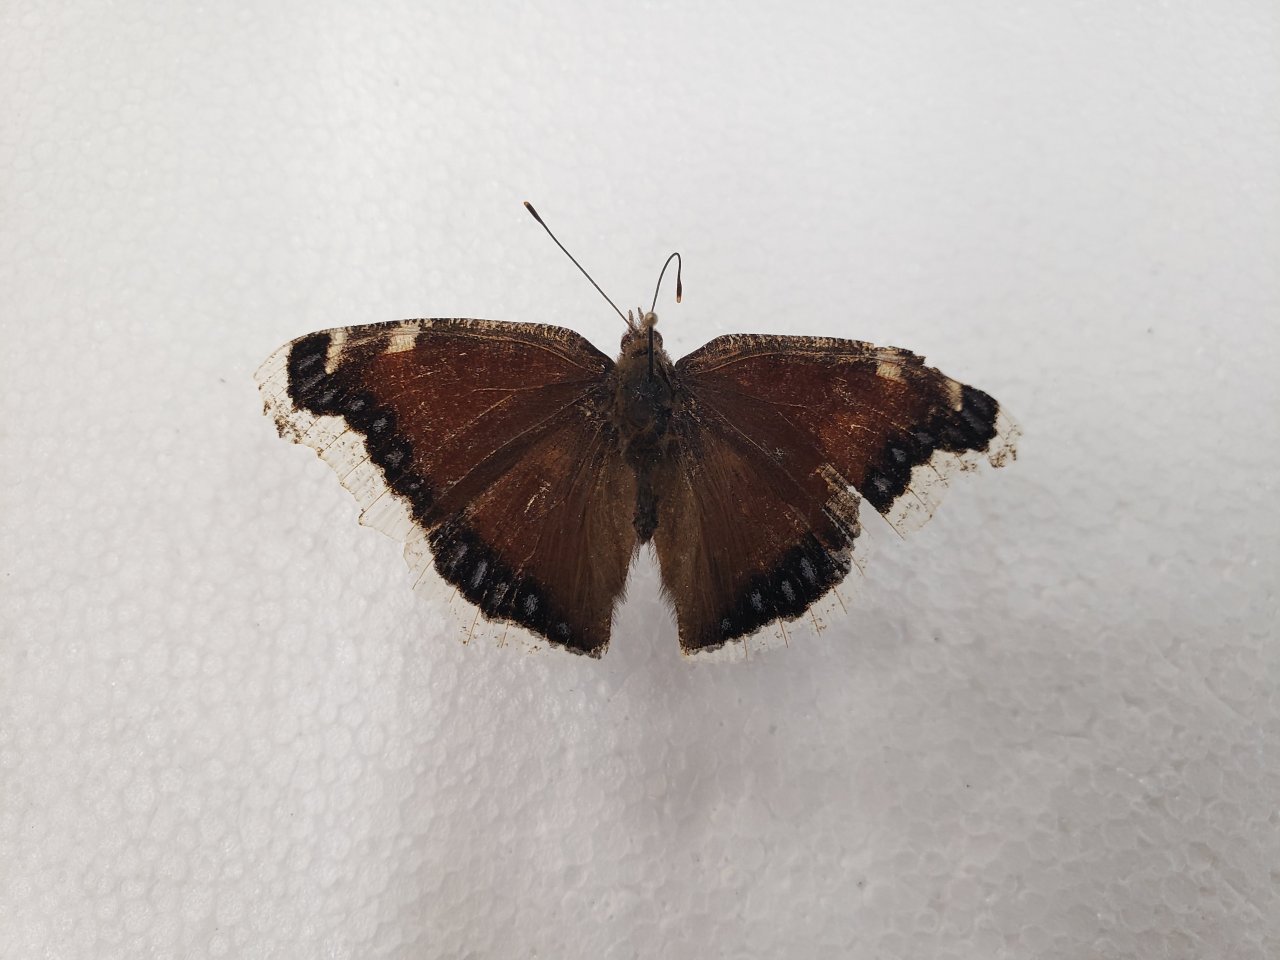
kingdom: Animalia
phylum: Arthropoda
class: Insecta
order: Lepidoptera
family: Nymphalidae
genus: Nymphalis
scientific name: Nymphalis antiopa
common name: Mourning Cloak
